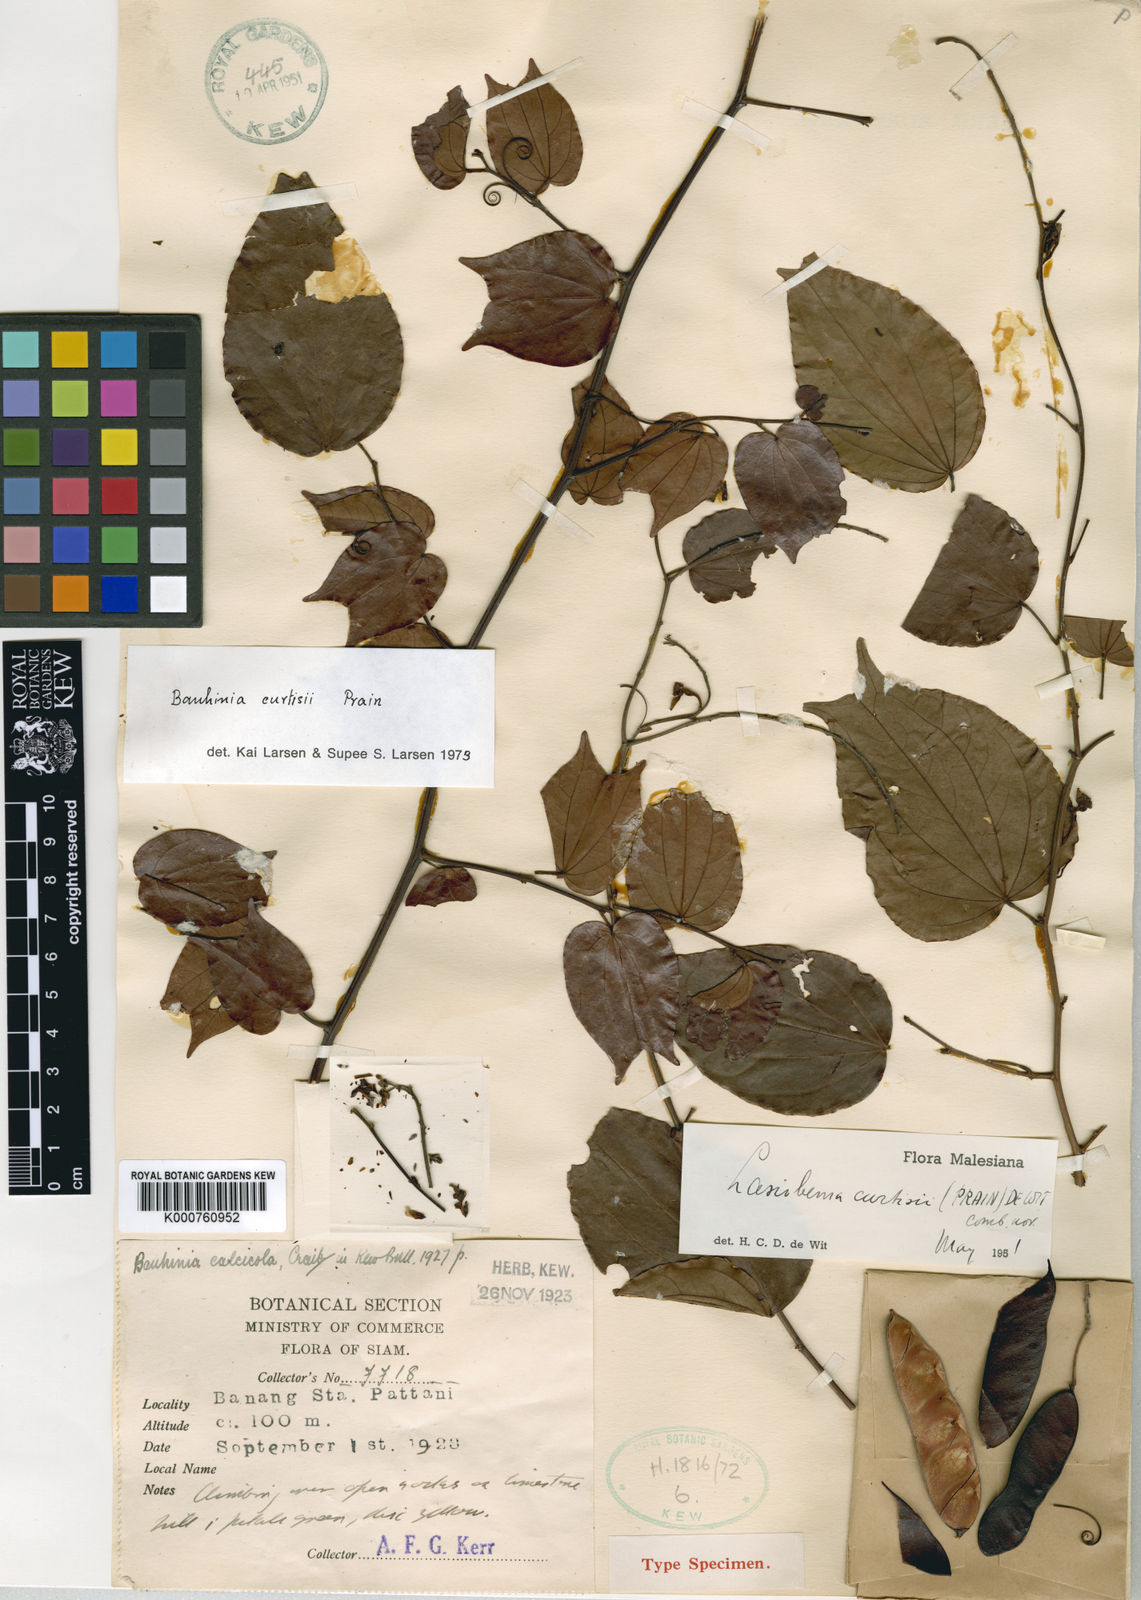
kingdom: Plantae
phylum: Tracheophyta
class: Magnoliopsida
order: Fabales
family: Fabaceae
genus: Phanera
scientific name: Phanera curtisii
